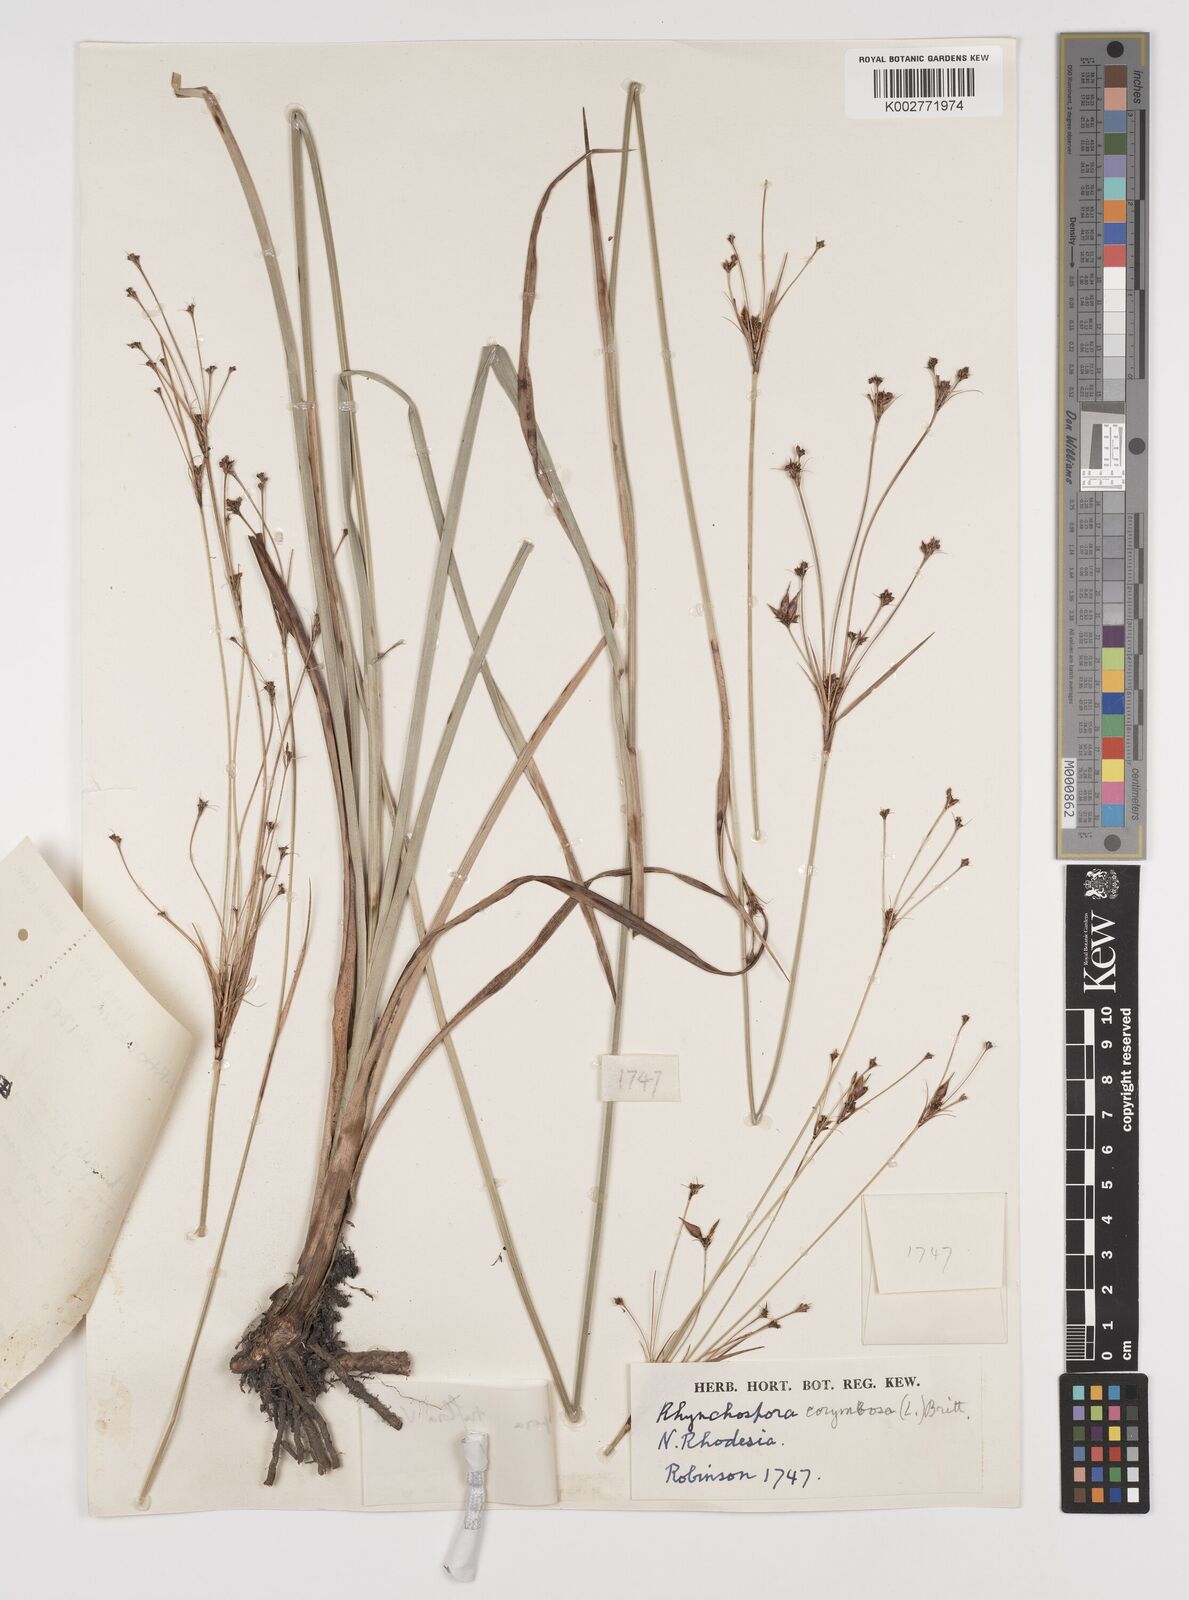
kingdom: Plantae
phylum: Tracheophyta
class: Liliopsida
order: Poales
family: Cyperaceae
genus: Rhynchospora
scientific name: Rhynchospora triflora
